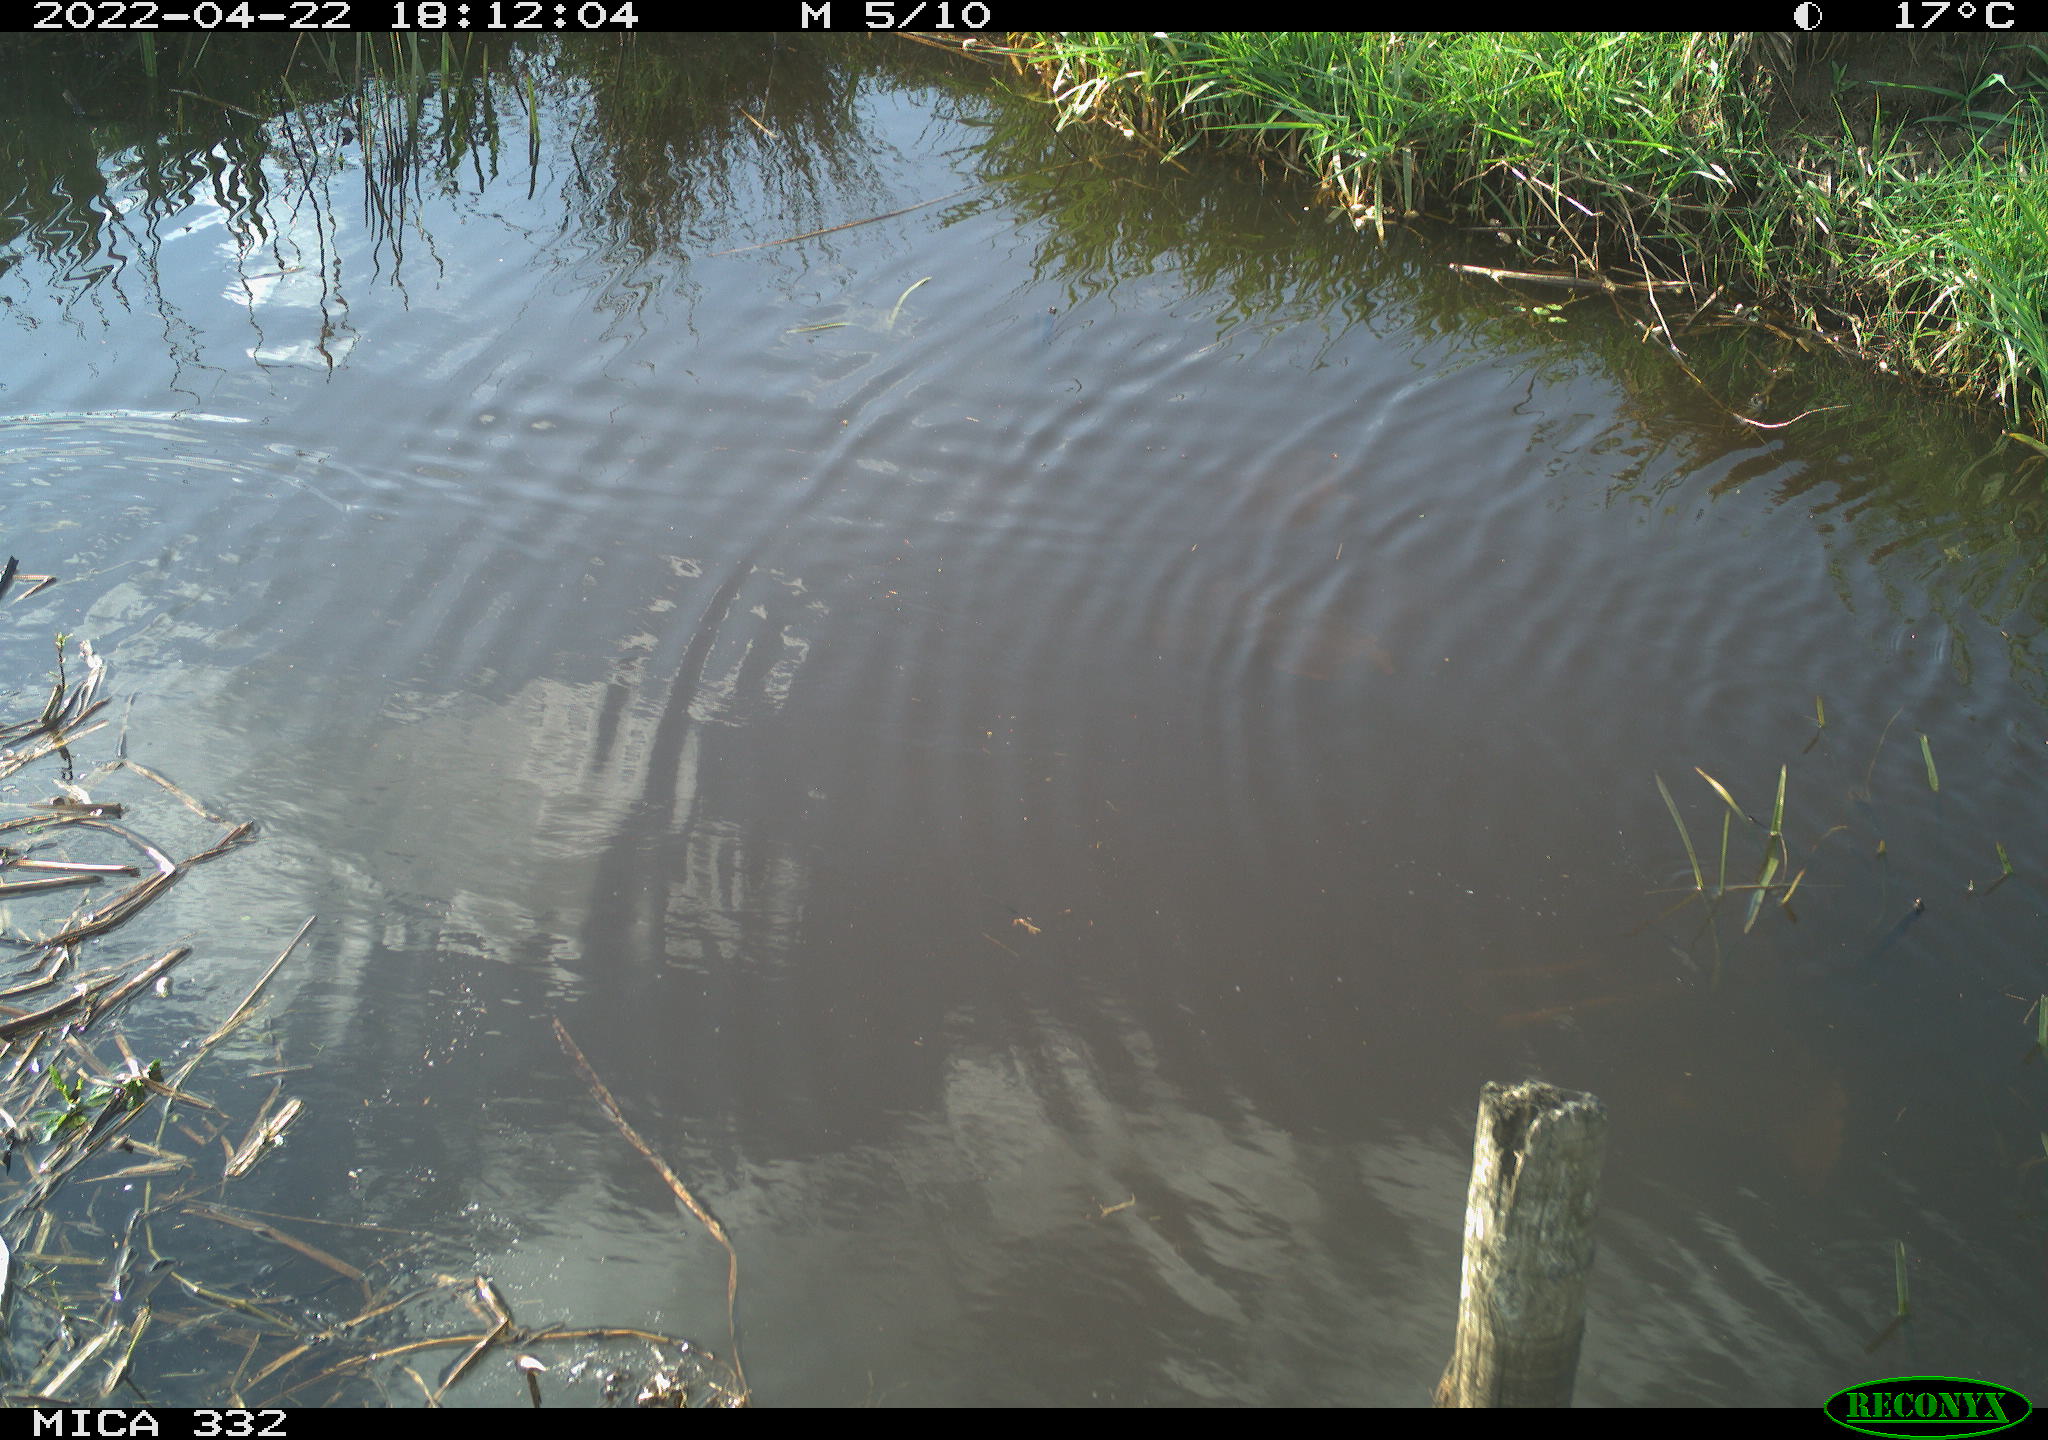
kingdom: Animalia
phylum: Chordata
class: Aves
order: Gruiformes
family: Rallidae
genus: Gallinula
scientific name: Gallinula chloropus
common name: Common moorhen
